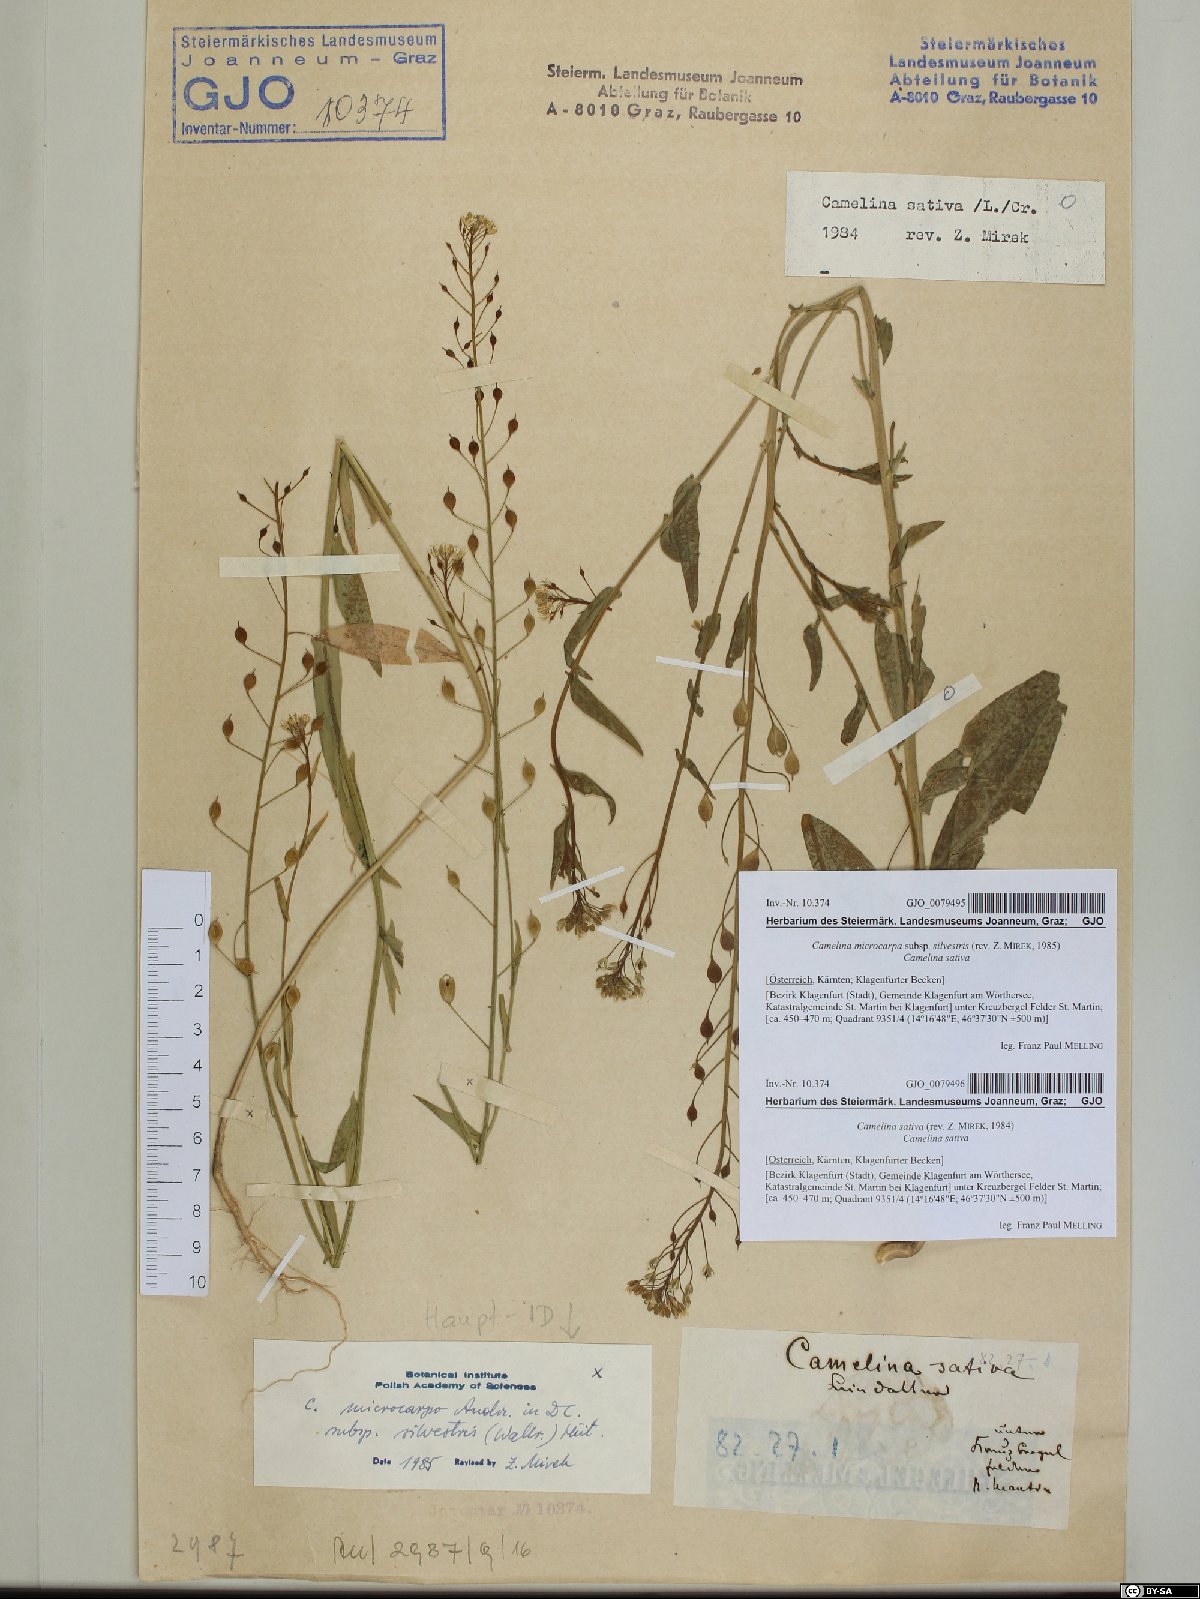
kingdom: Plantae
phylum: Tracheophyta
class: Magnoliopsida
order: Brassicales
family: Brassicaceae
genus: Camelina
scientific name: Camelina sativa
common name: Gold-of-pleasure
